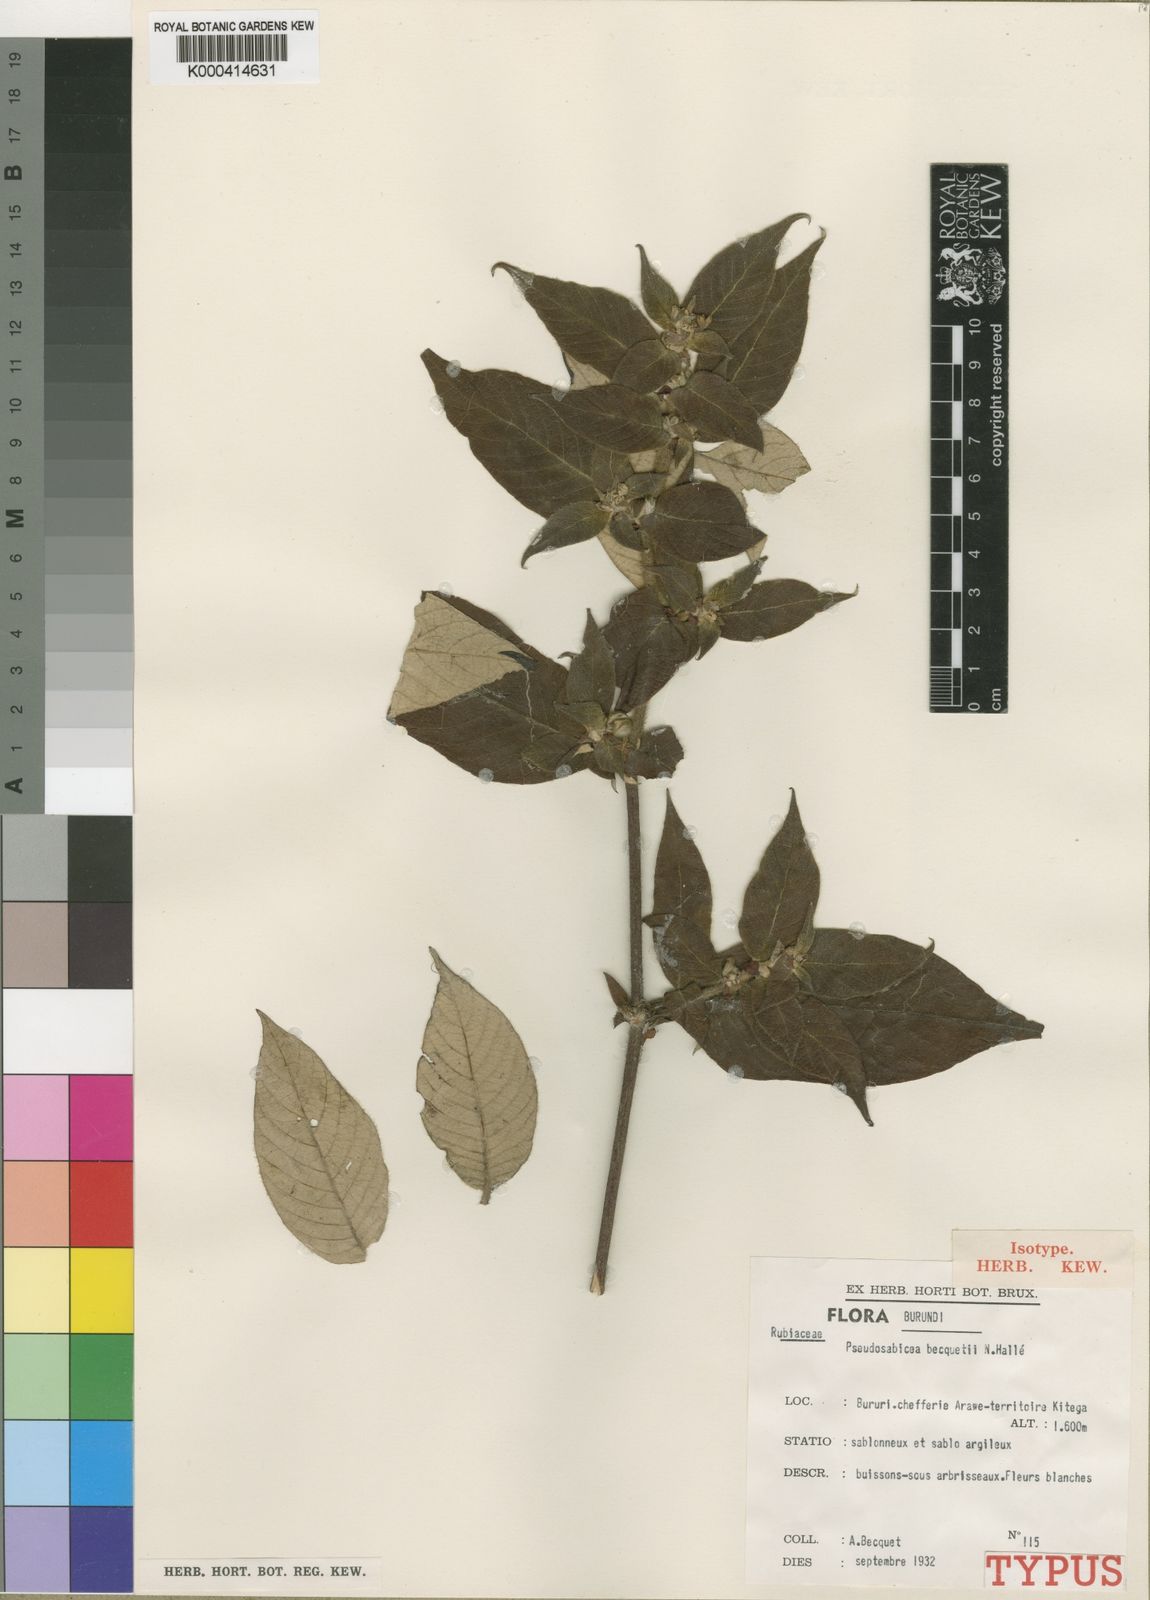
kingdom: Plantae
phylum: Tracheophyta
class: Magnoliopsida
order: Gentianales
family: Rubiaceae
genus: Sabicea
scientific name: Sabicea bequaertii
